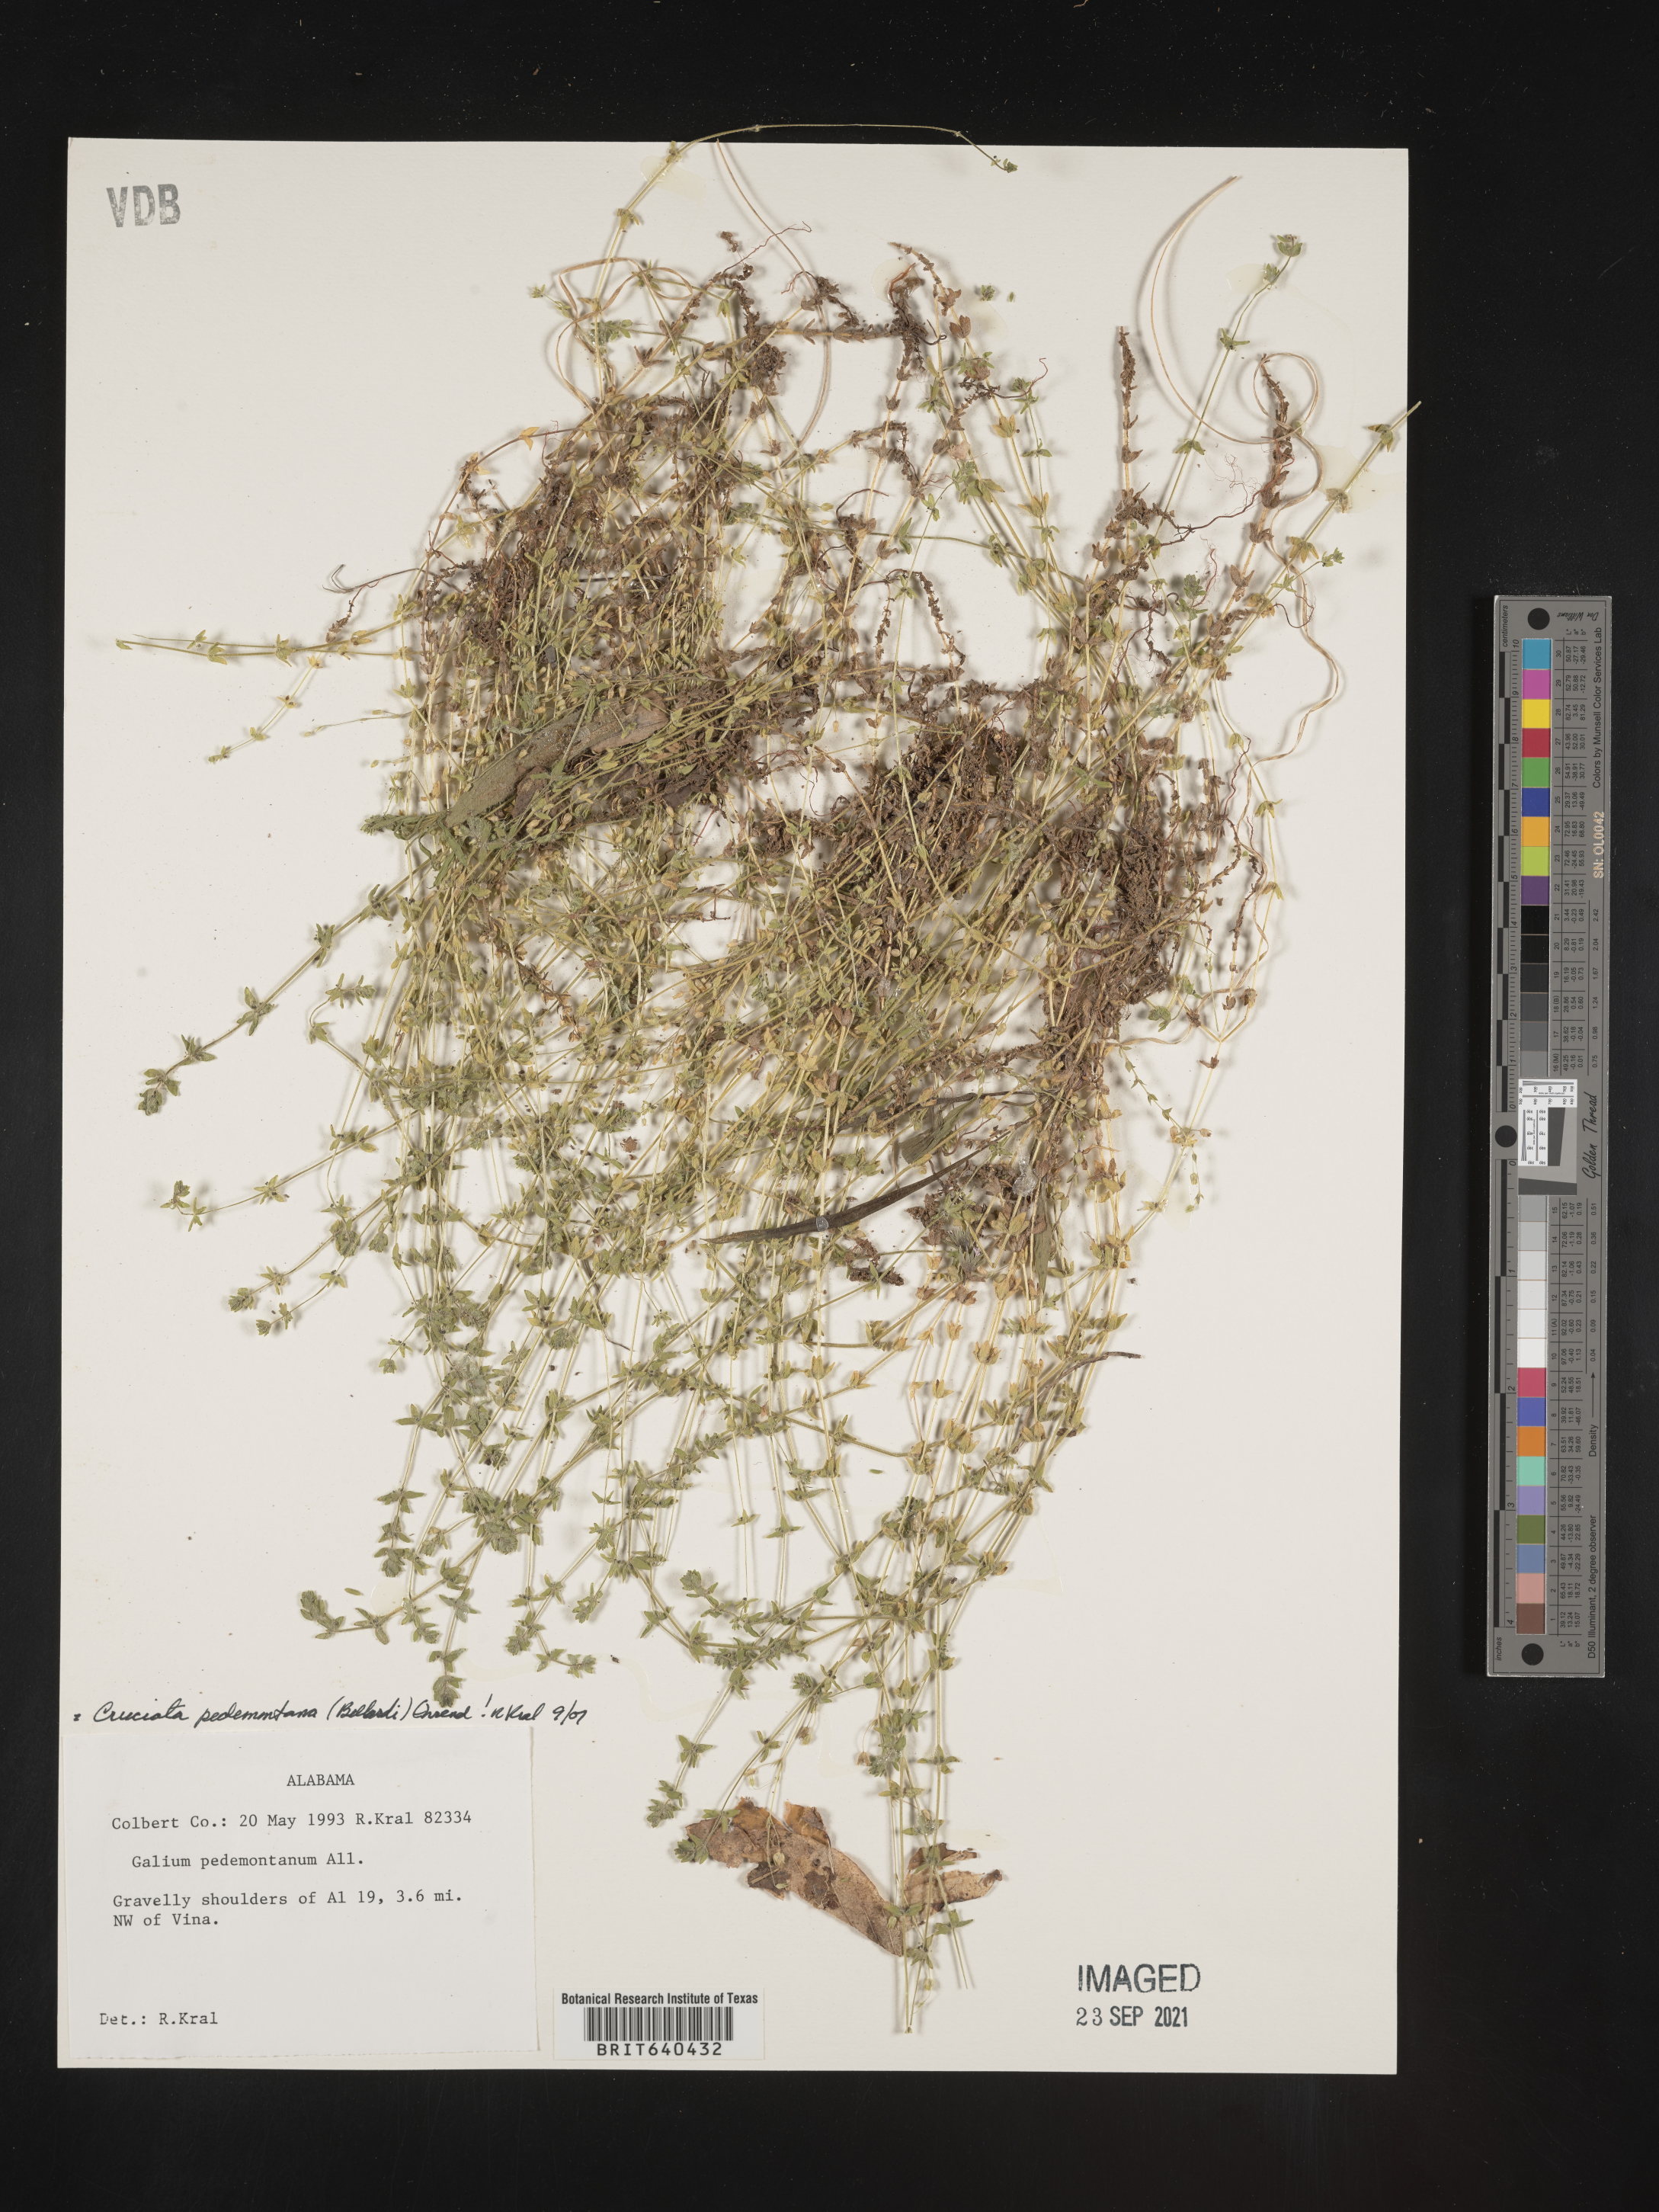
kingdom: Plantae
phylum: Tracheophyta
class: Magnoliopsida
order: Gentianales
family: Rubiaceae
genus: Cruciata
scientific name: Cruciata
